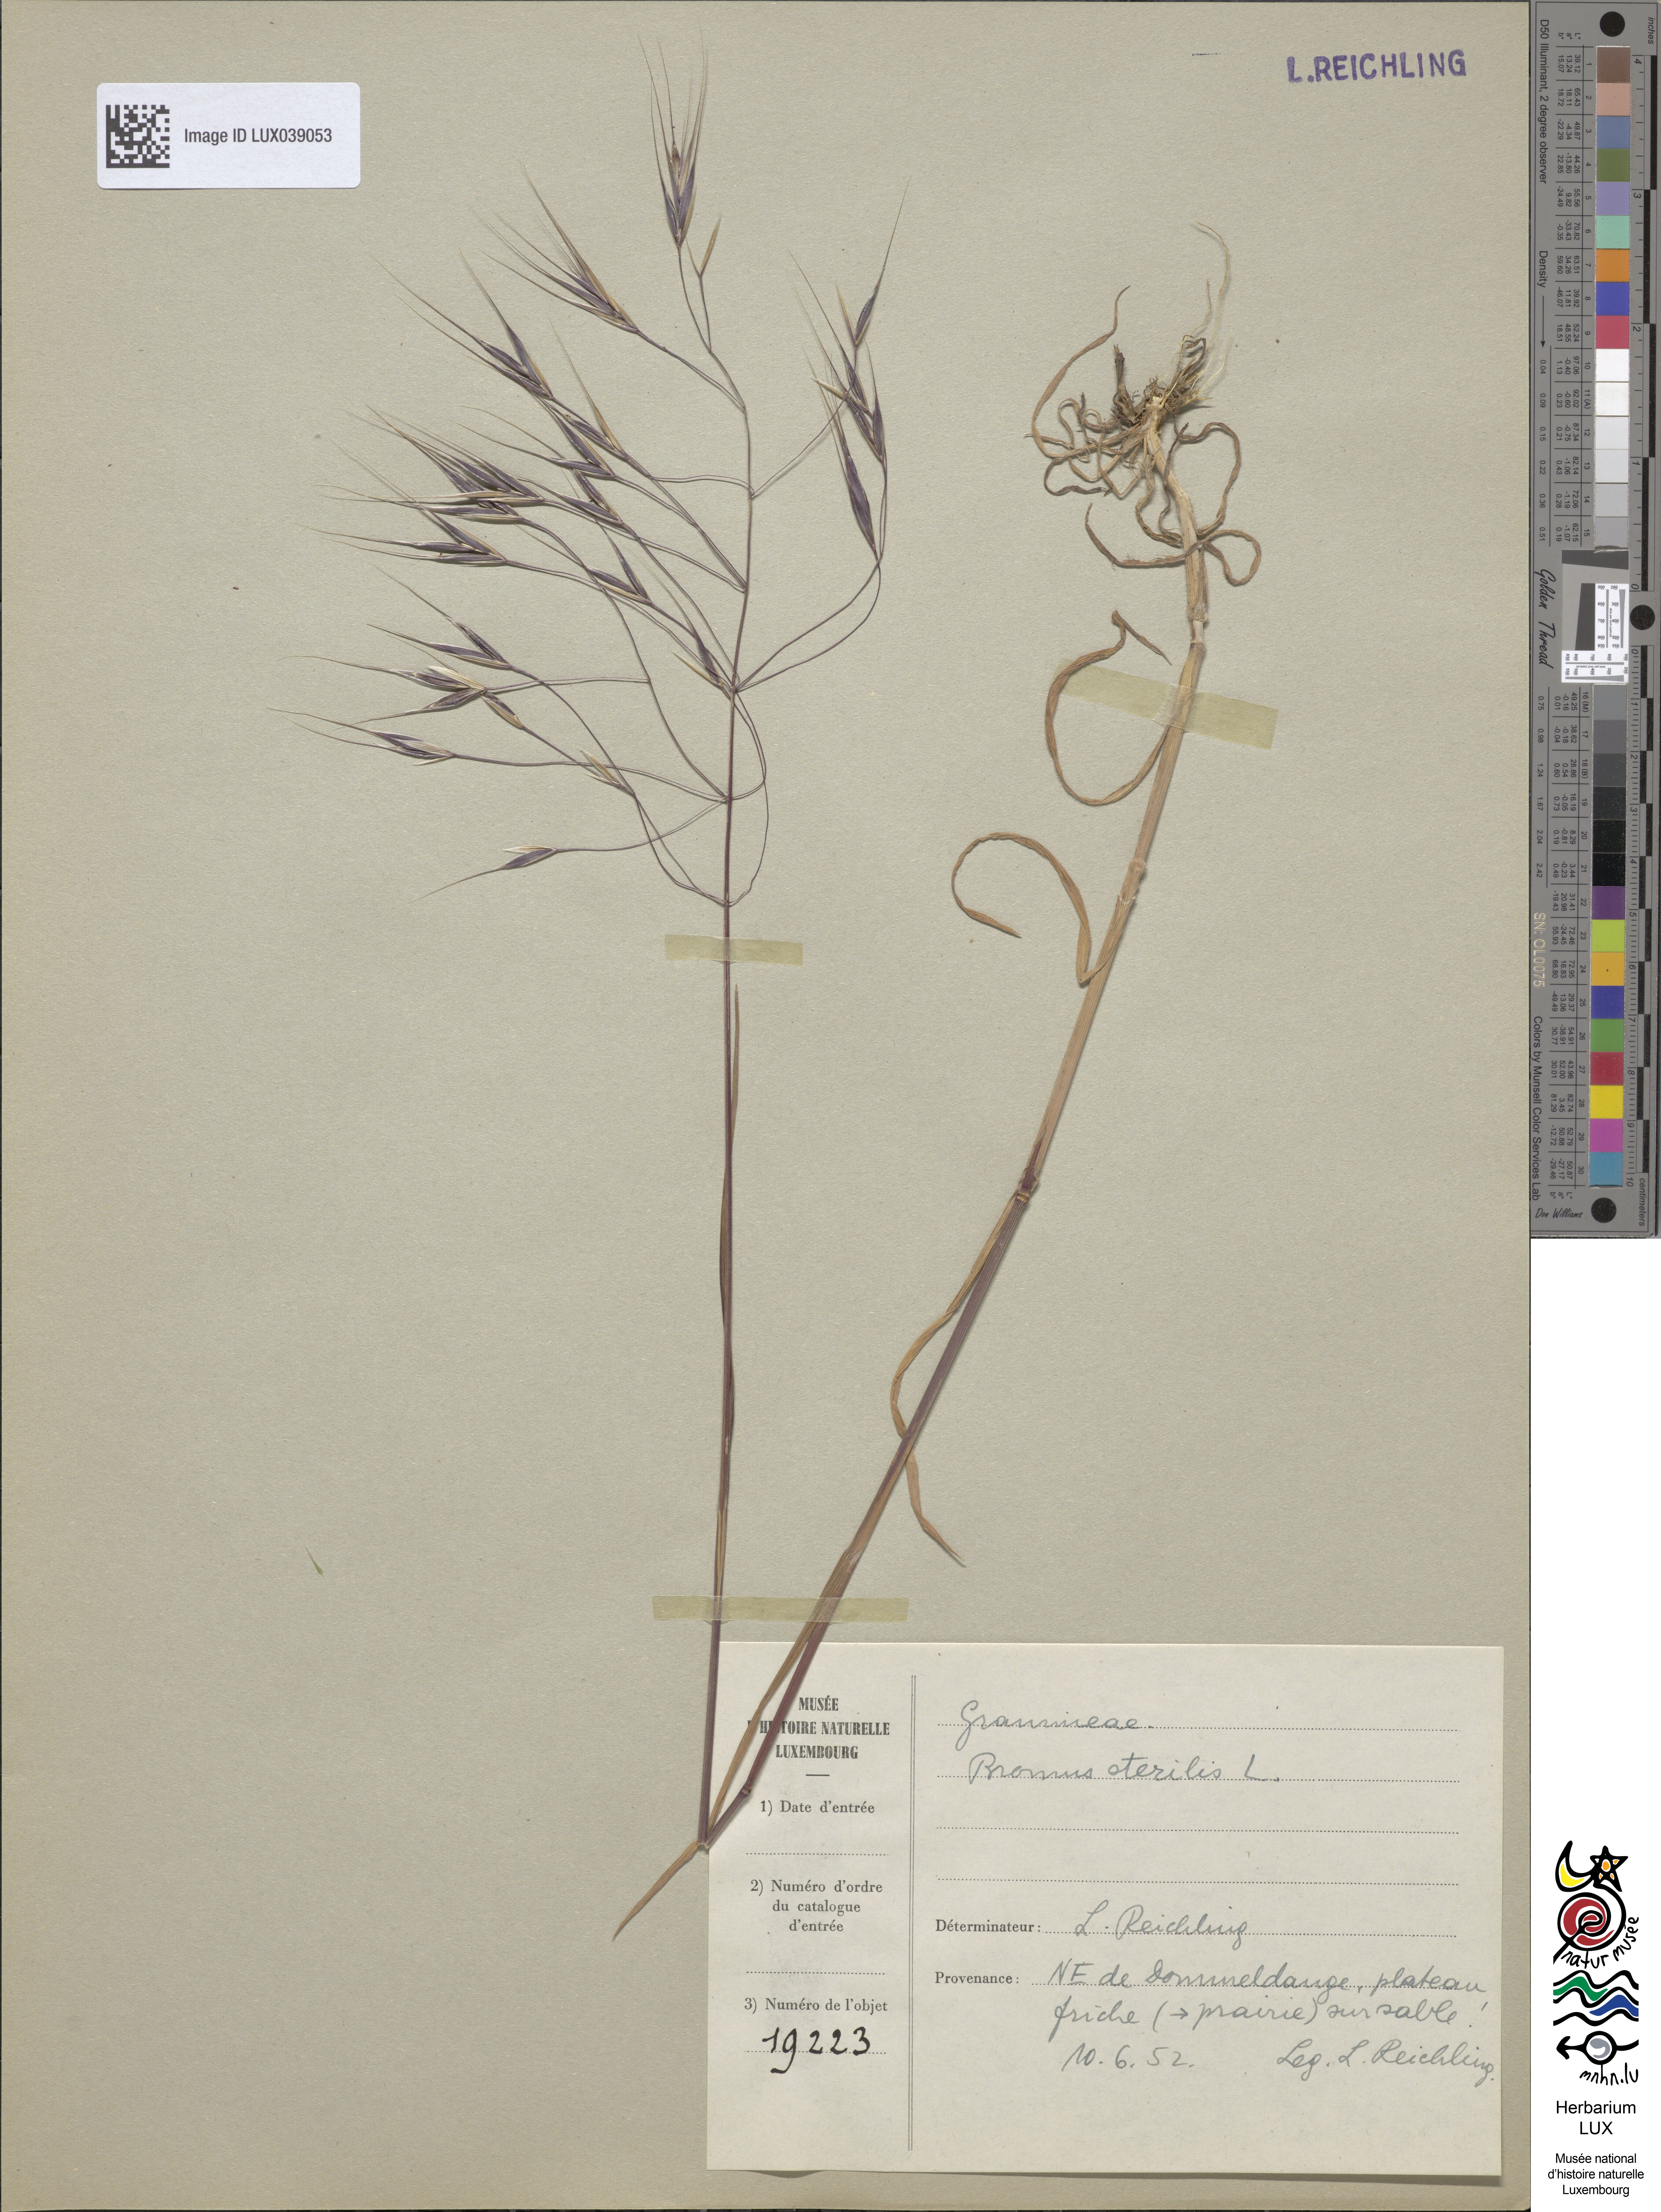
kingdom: Plantae
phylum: Tracheophyta
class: Liliopsida
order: Poales
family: Poaceae
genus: Bromus
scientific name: Bromus sterilis
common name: Poverty brome
